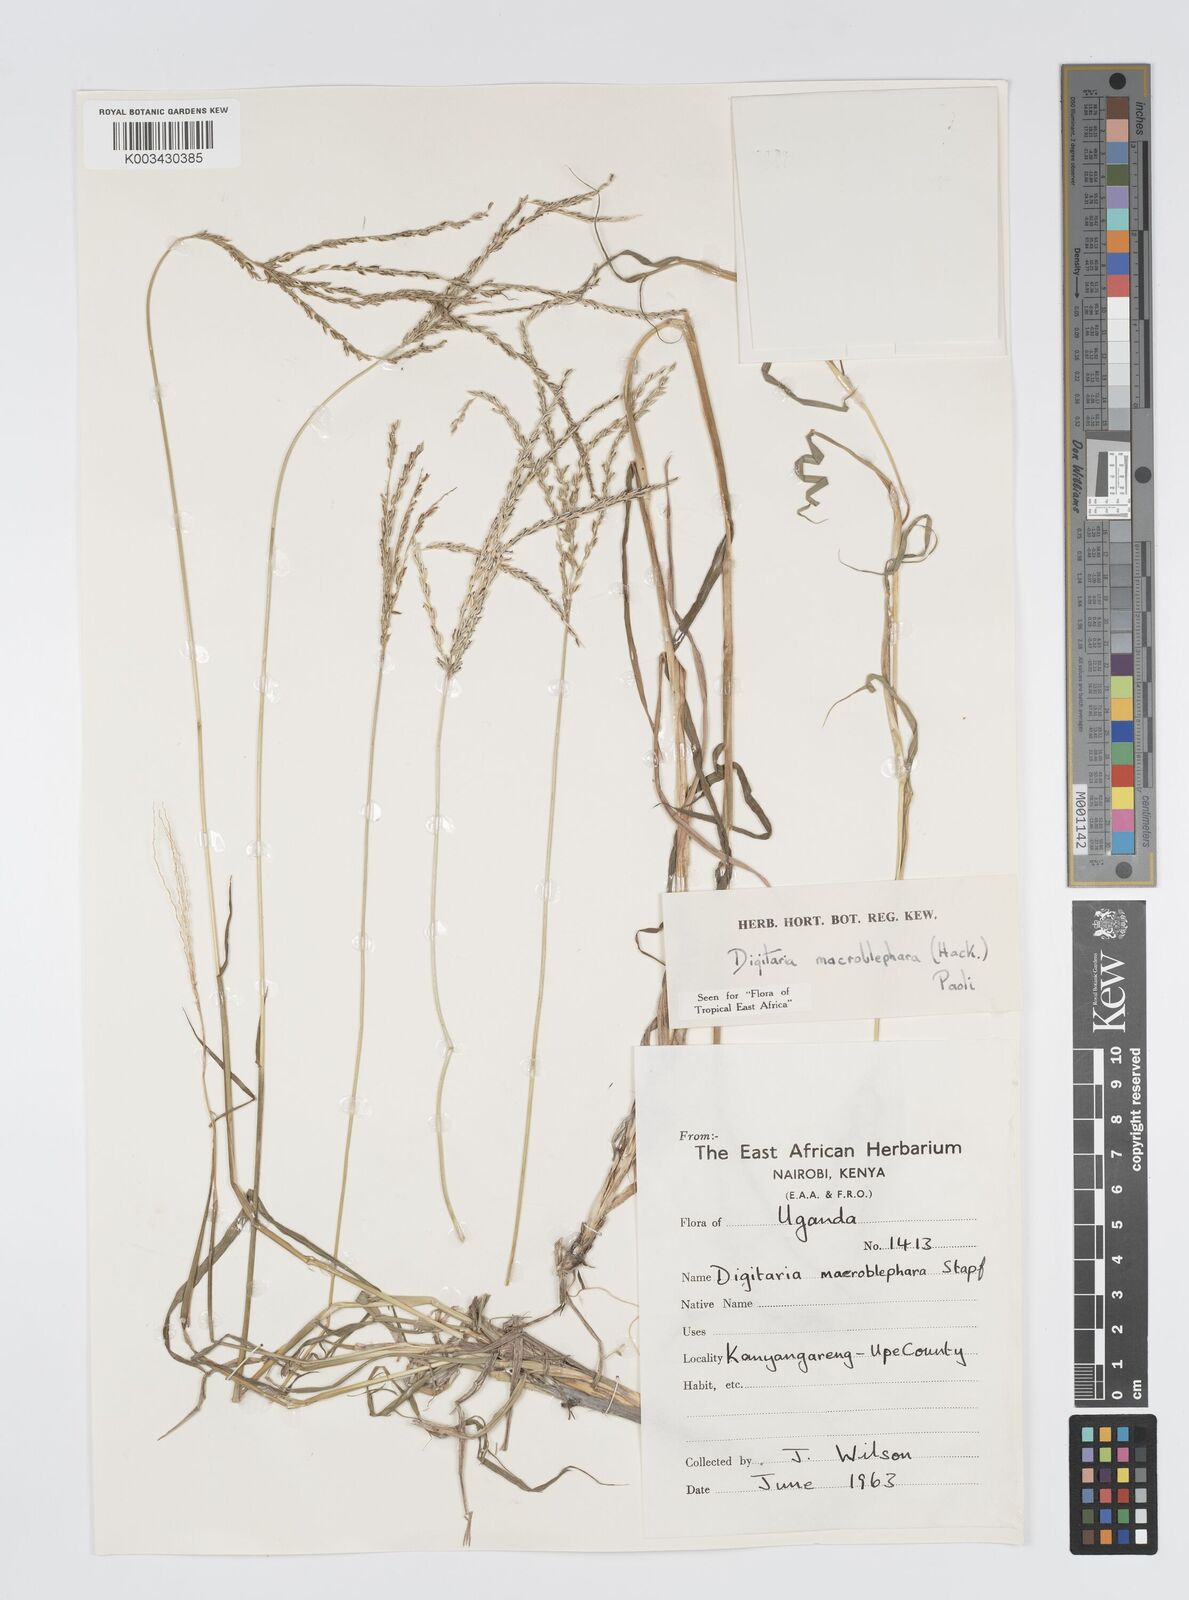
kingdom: Plantae
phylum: Tracheophyta
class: Liliopsida
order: Poales
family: Poaceae
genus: Digitaria
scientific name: Digitaria macroblephara
